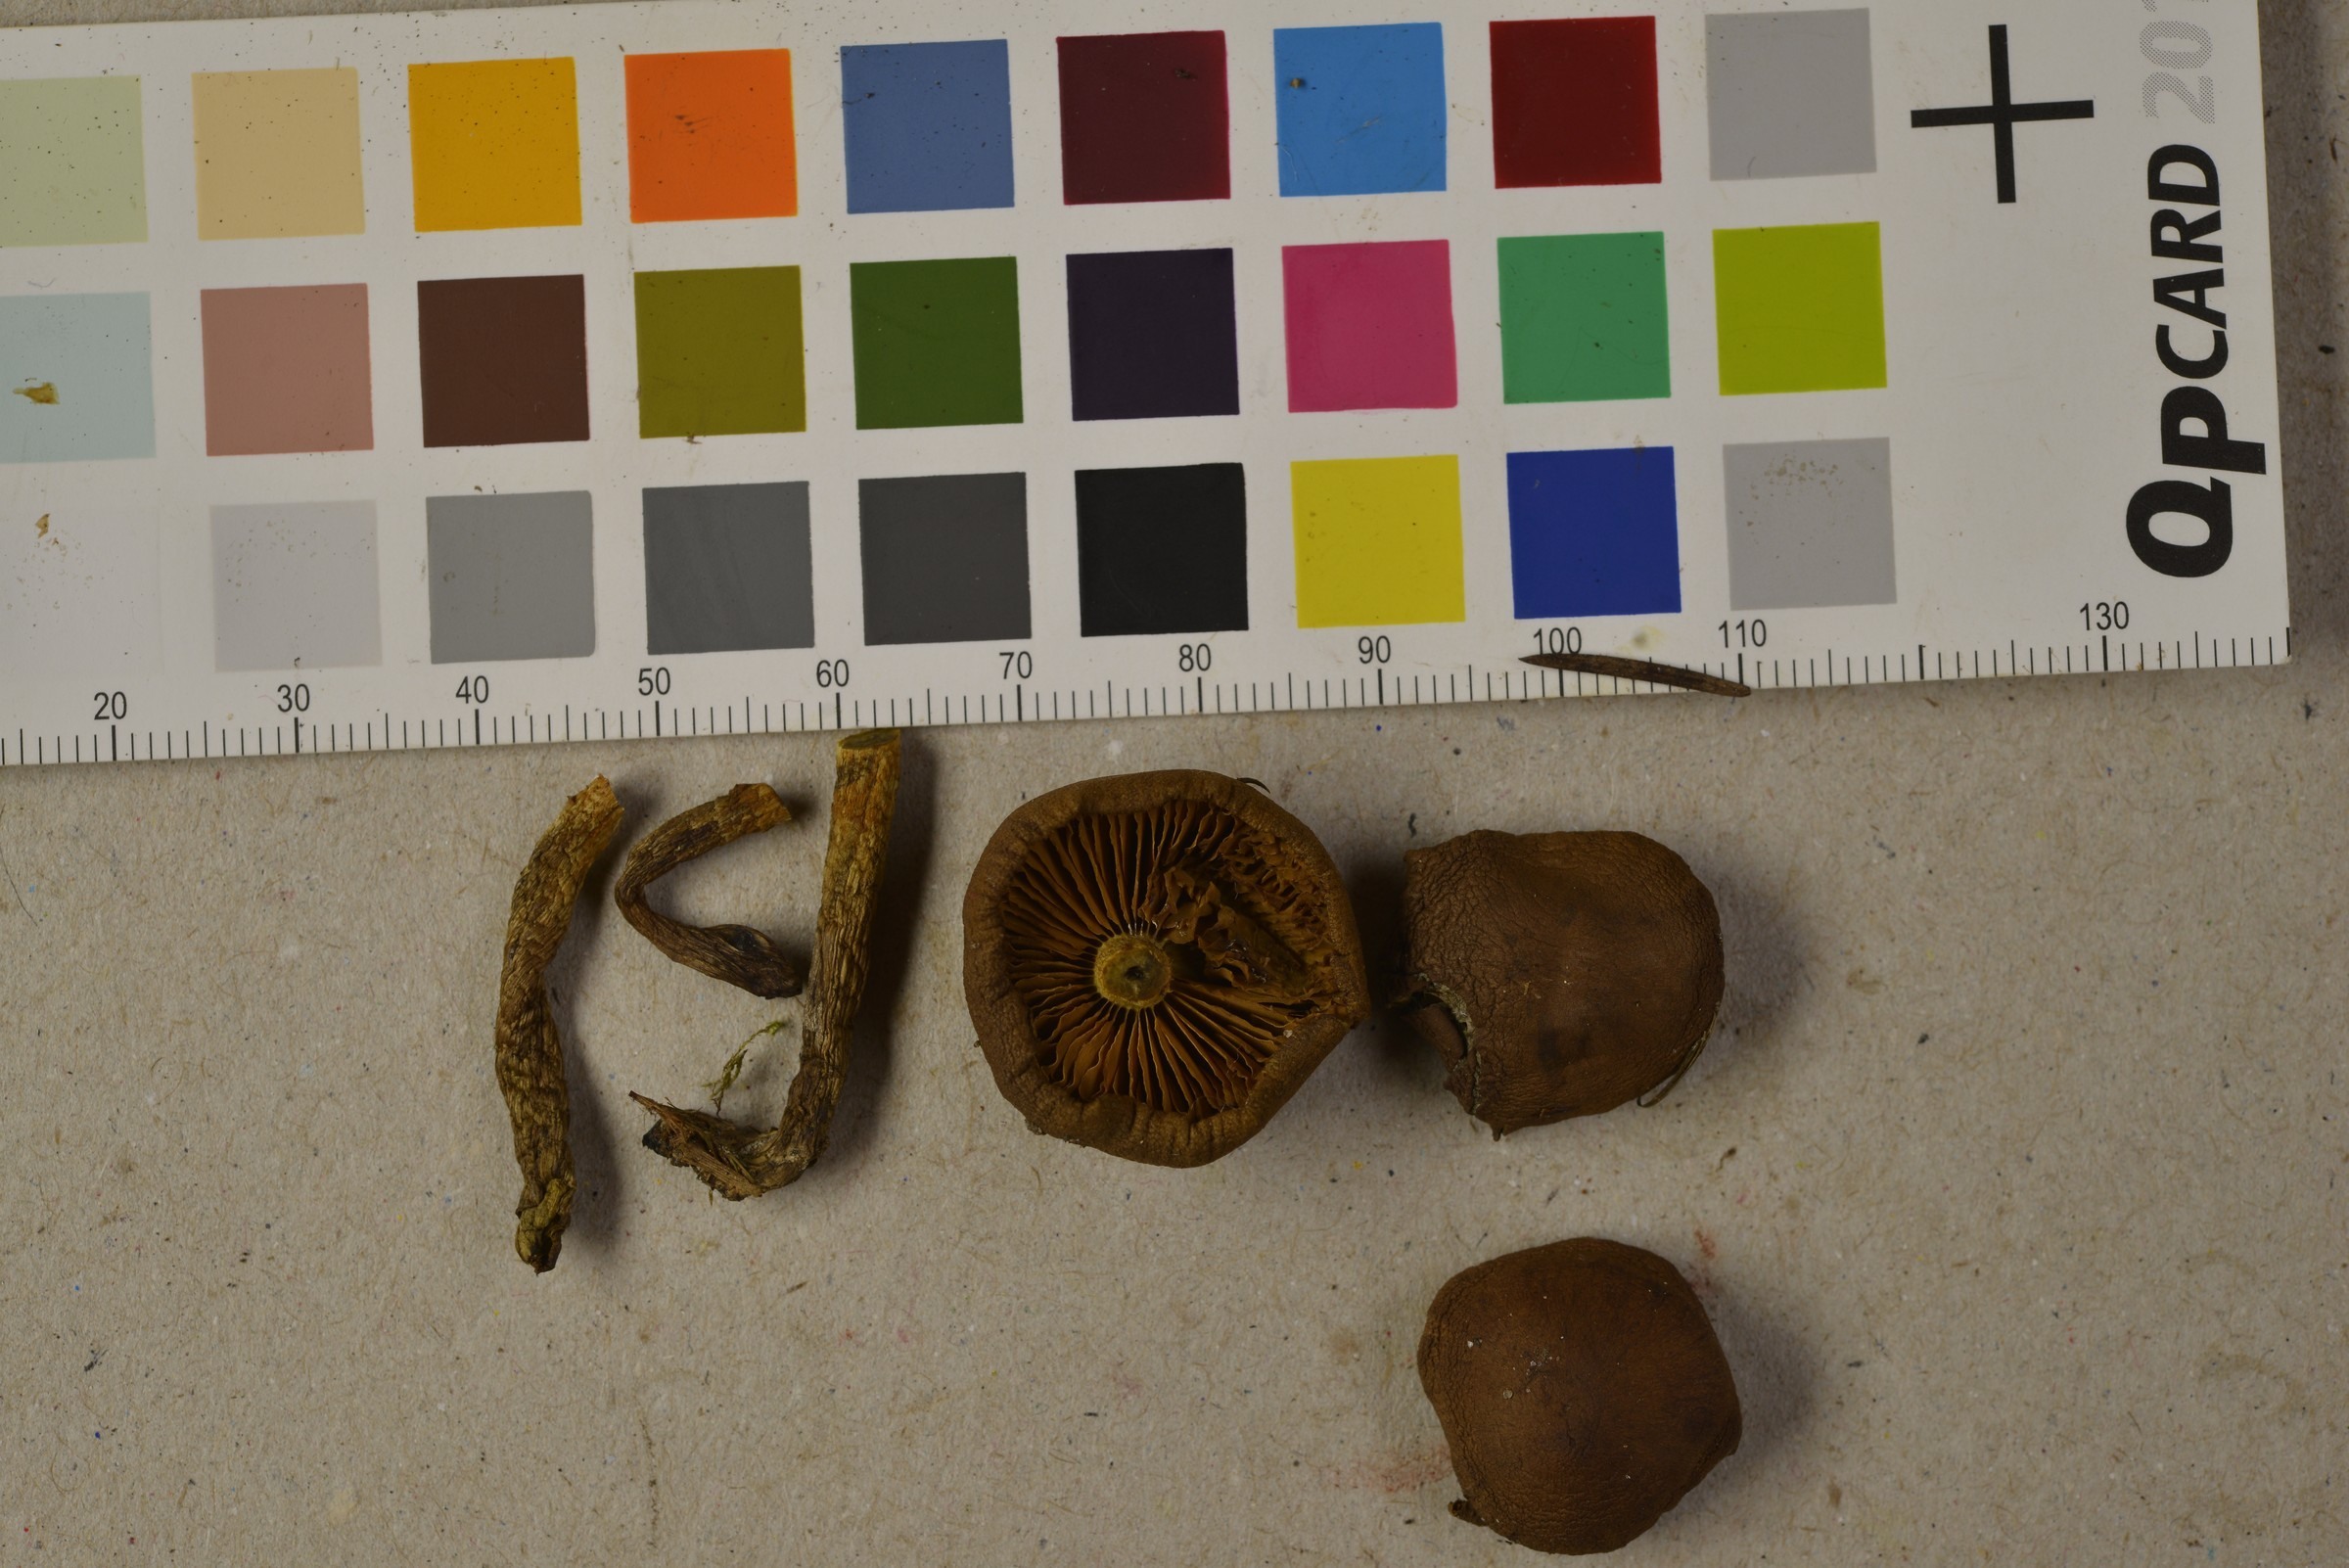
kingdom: Fungi
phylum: Basidiomycota
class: Agaricomycetes
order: Agaricales
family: Cortinariaceae
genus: Cortinarius
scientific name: Cortinarius croceus
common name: Saffron webcap
